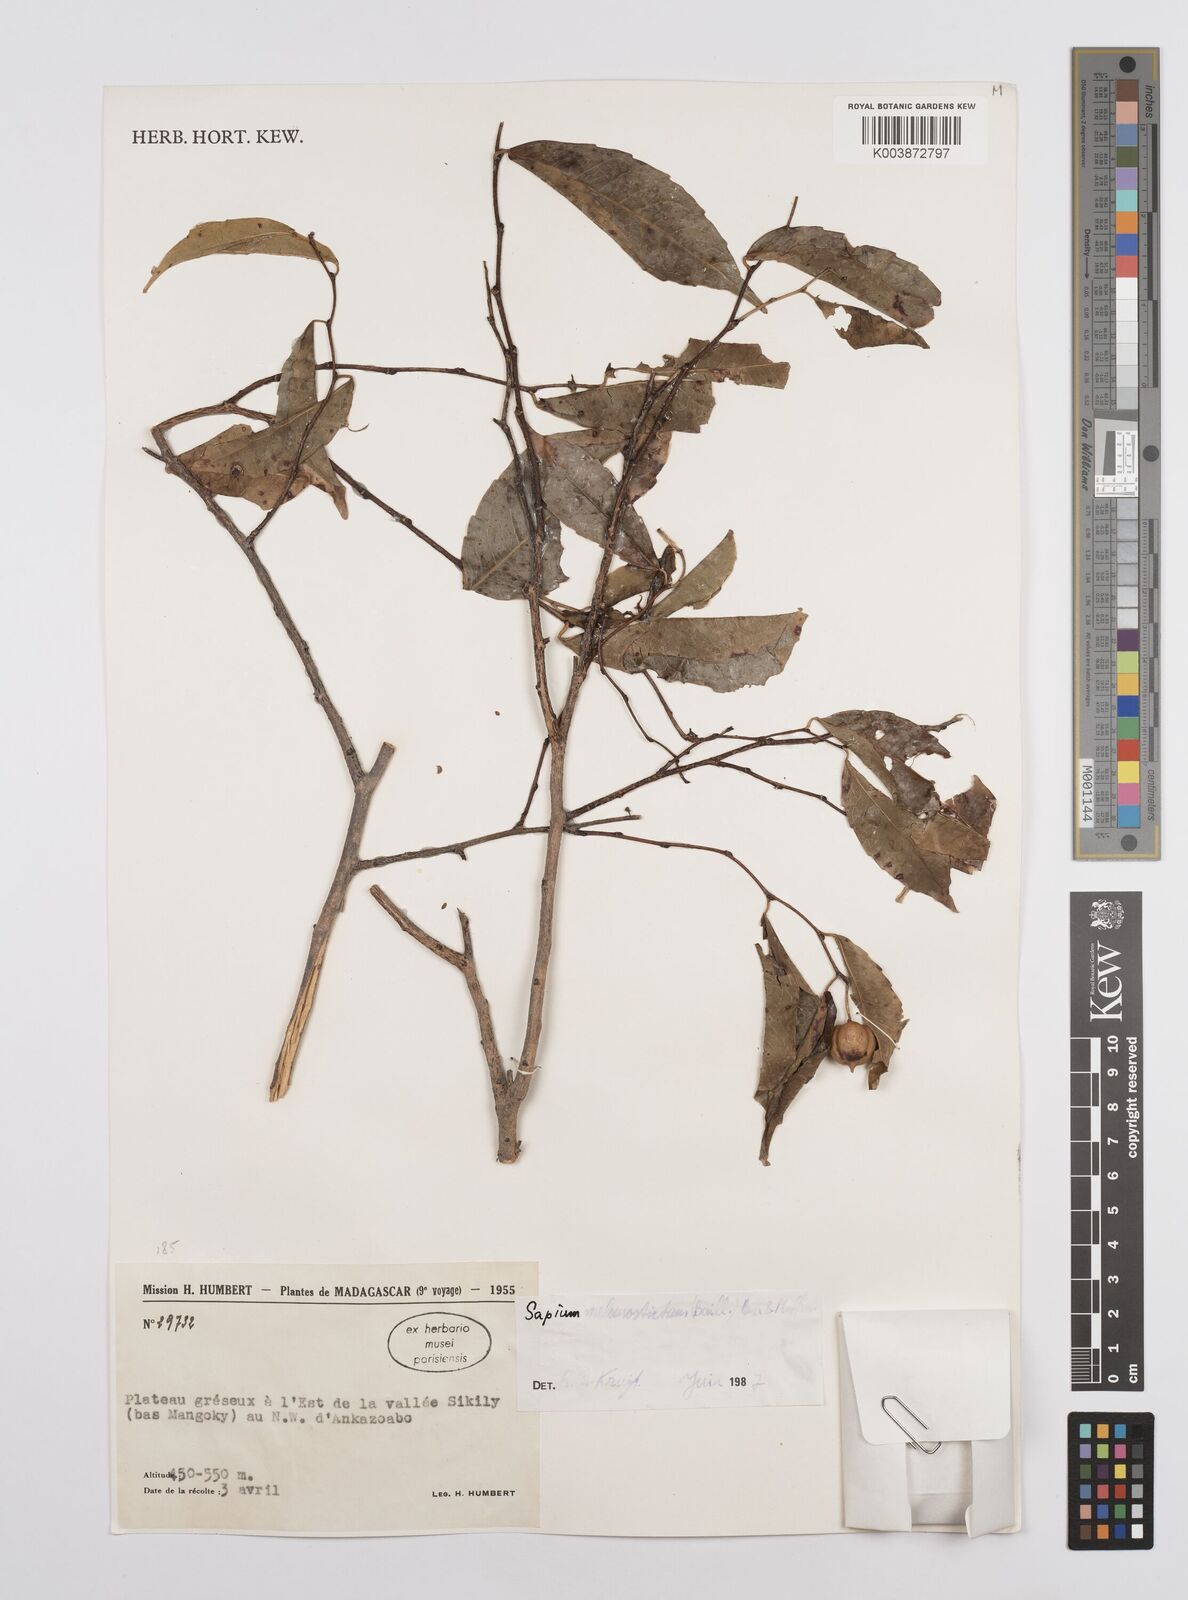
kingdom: Plantae
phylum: Tracheophyta
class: Magnoliopsida
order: Malpighiales
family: Euphorbiaceae
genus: Sclerocroton
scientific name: Sclerocroton melanostictus
